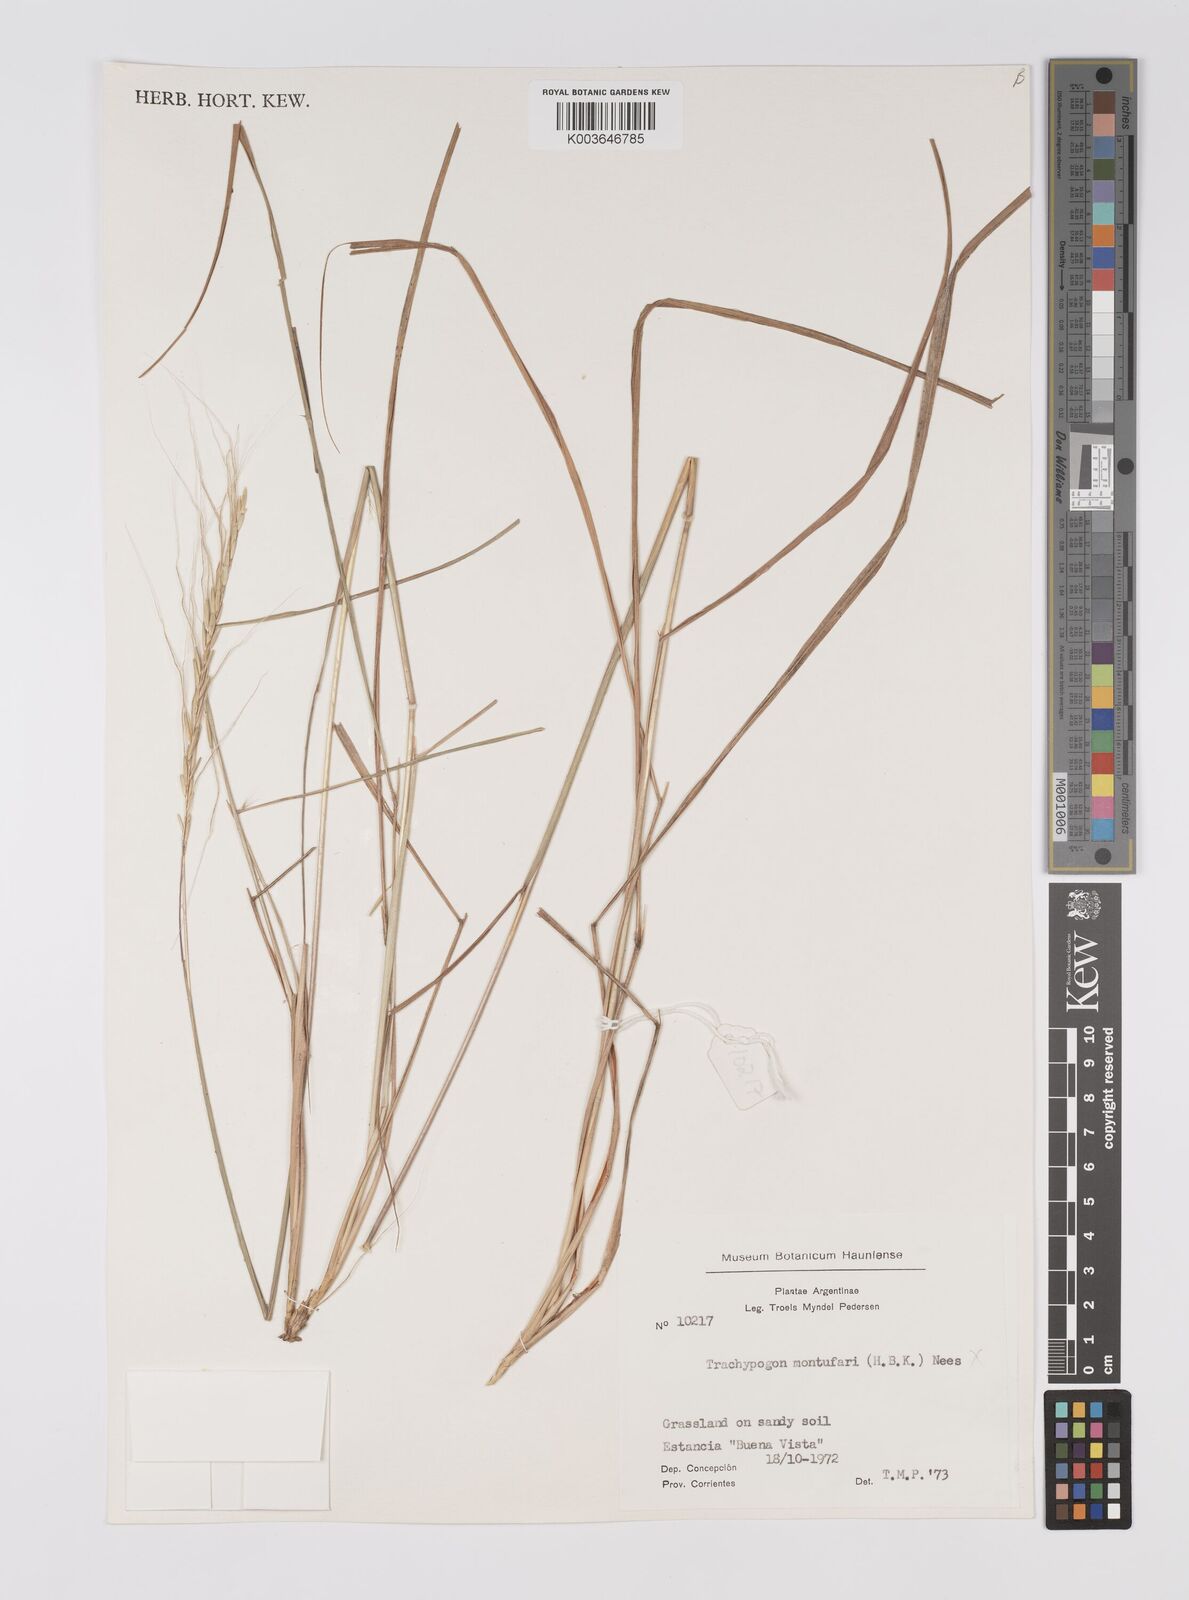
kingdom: Plantae
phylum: Tracheophyta
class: Liliopsida
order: Poales
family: Poaceae
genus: Trachypogon
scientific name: Trachypogon spicatus
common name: Crinkle-awn
